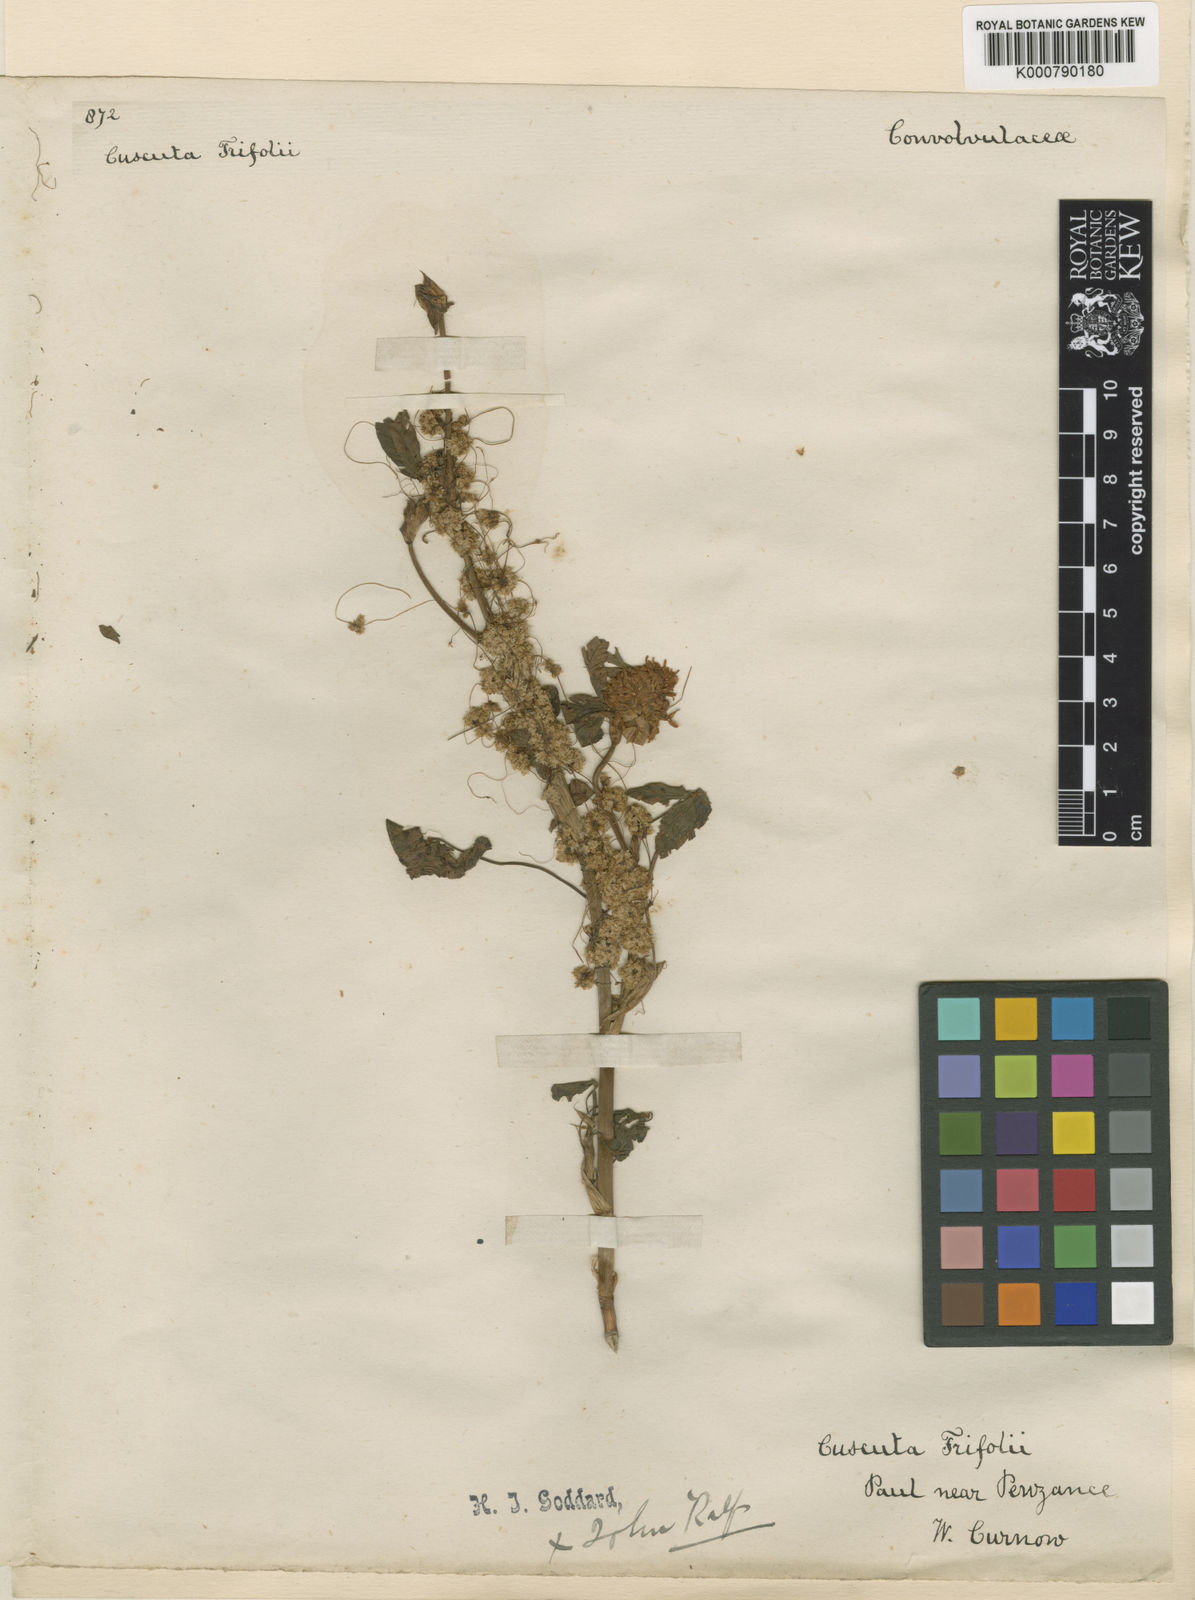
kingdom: Plantae
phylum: Tracheophyta
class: Magnoliopsida
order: Solanales
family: Convolvulaceae
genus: Cuscuta
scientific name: Cuscuta epithymum
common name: Clover dodder
